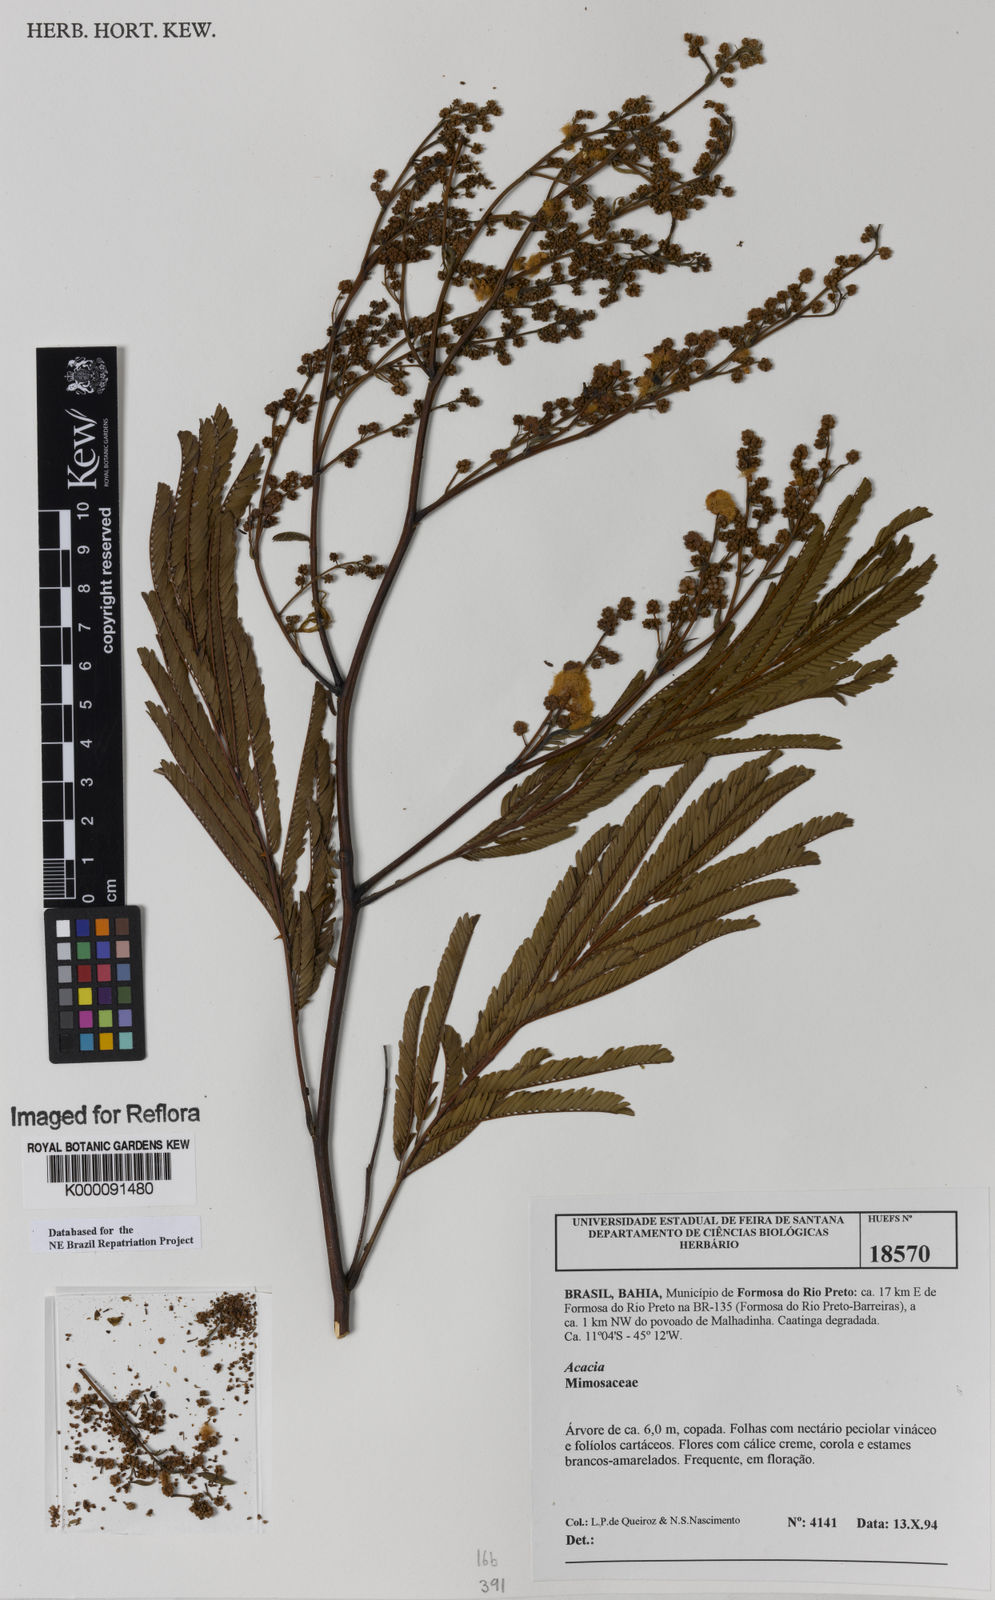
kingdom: Plantae
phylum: Tracheophyta
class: Magnoliopsida
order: Fabales
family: Fabaceae
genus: Senegalia
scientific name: Senegalia polyphylla
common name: White-tamarind
